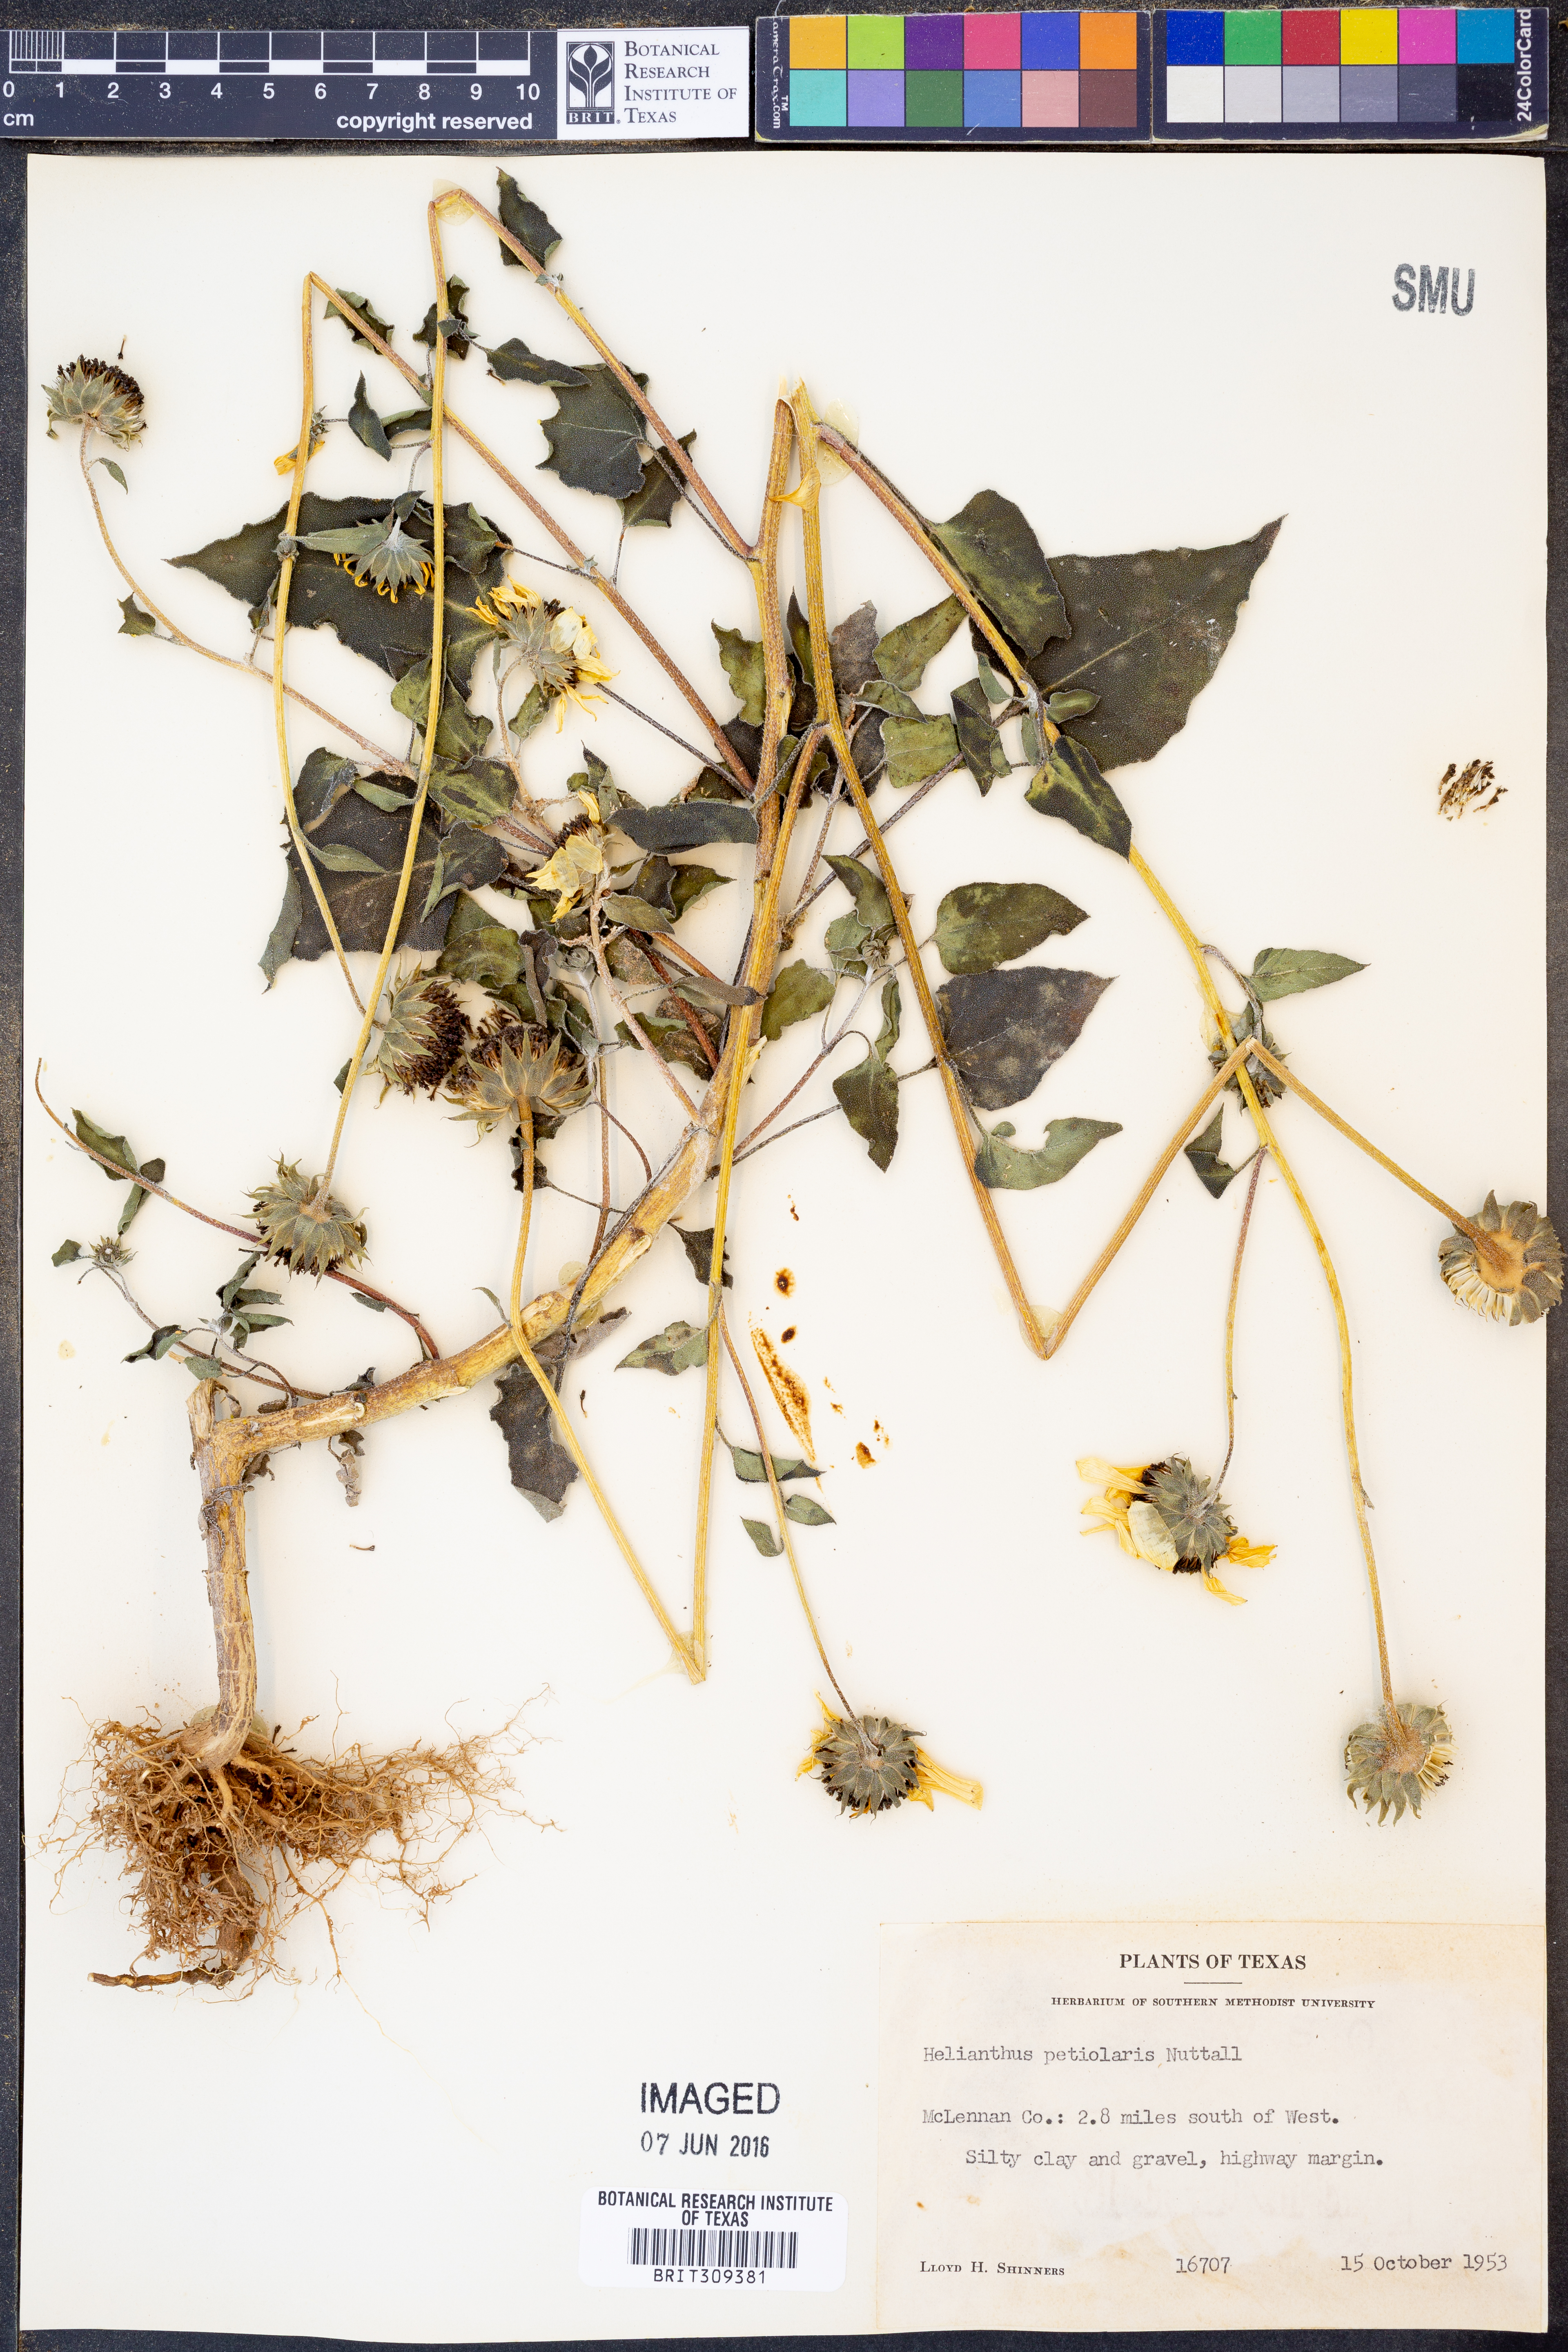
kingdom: Plantae
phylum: Tracheophyta
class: Magnoliopsida
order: Asterales
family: Asteraceae
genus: Helianthus
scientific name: Helianthus petiolaris
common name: Lesser sunflower
